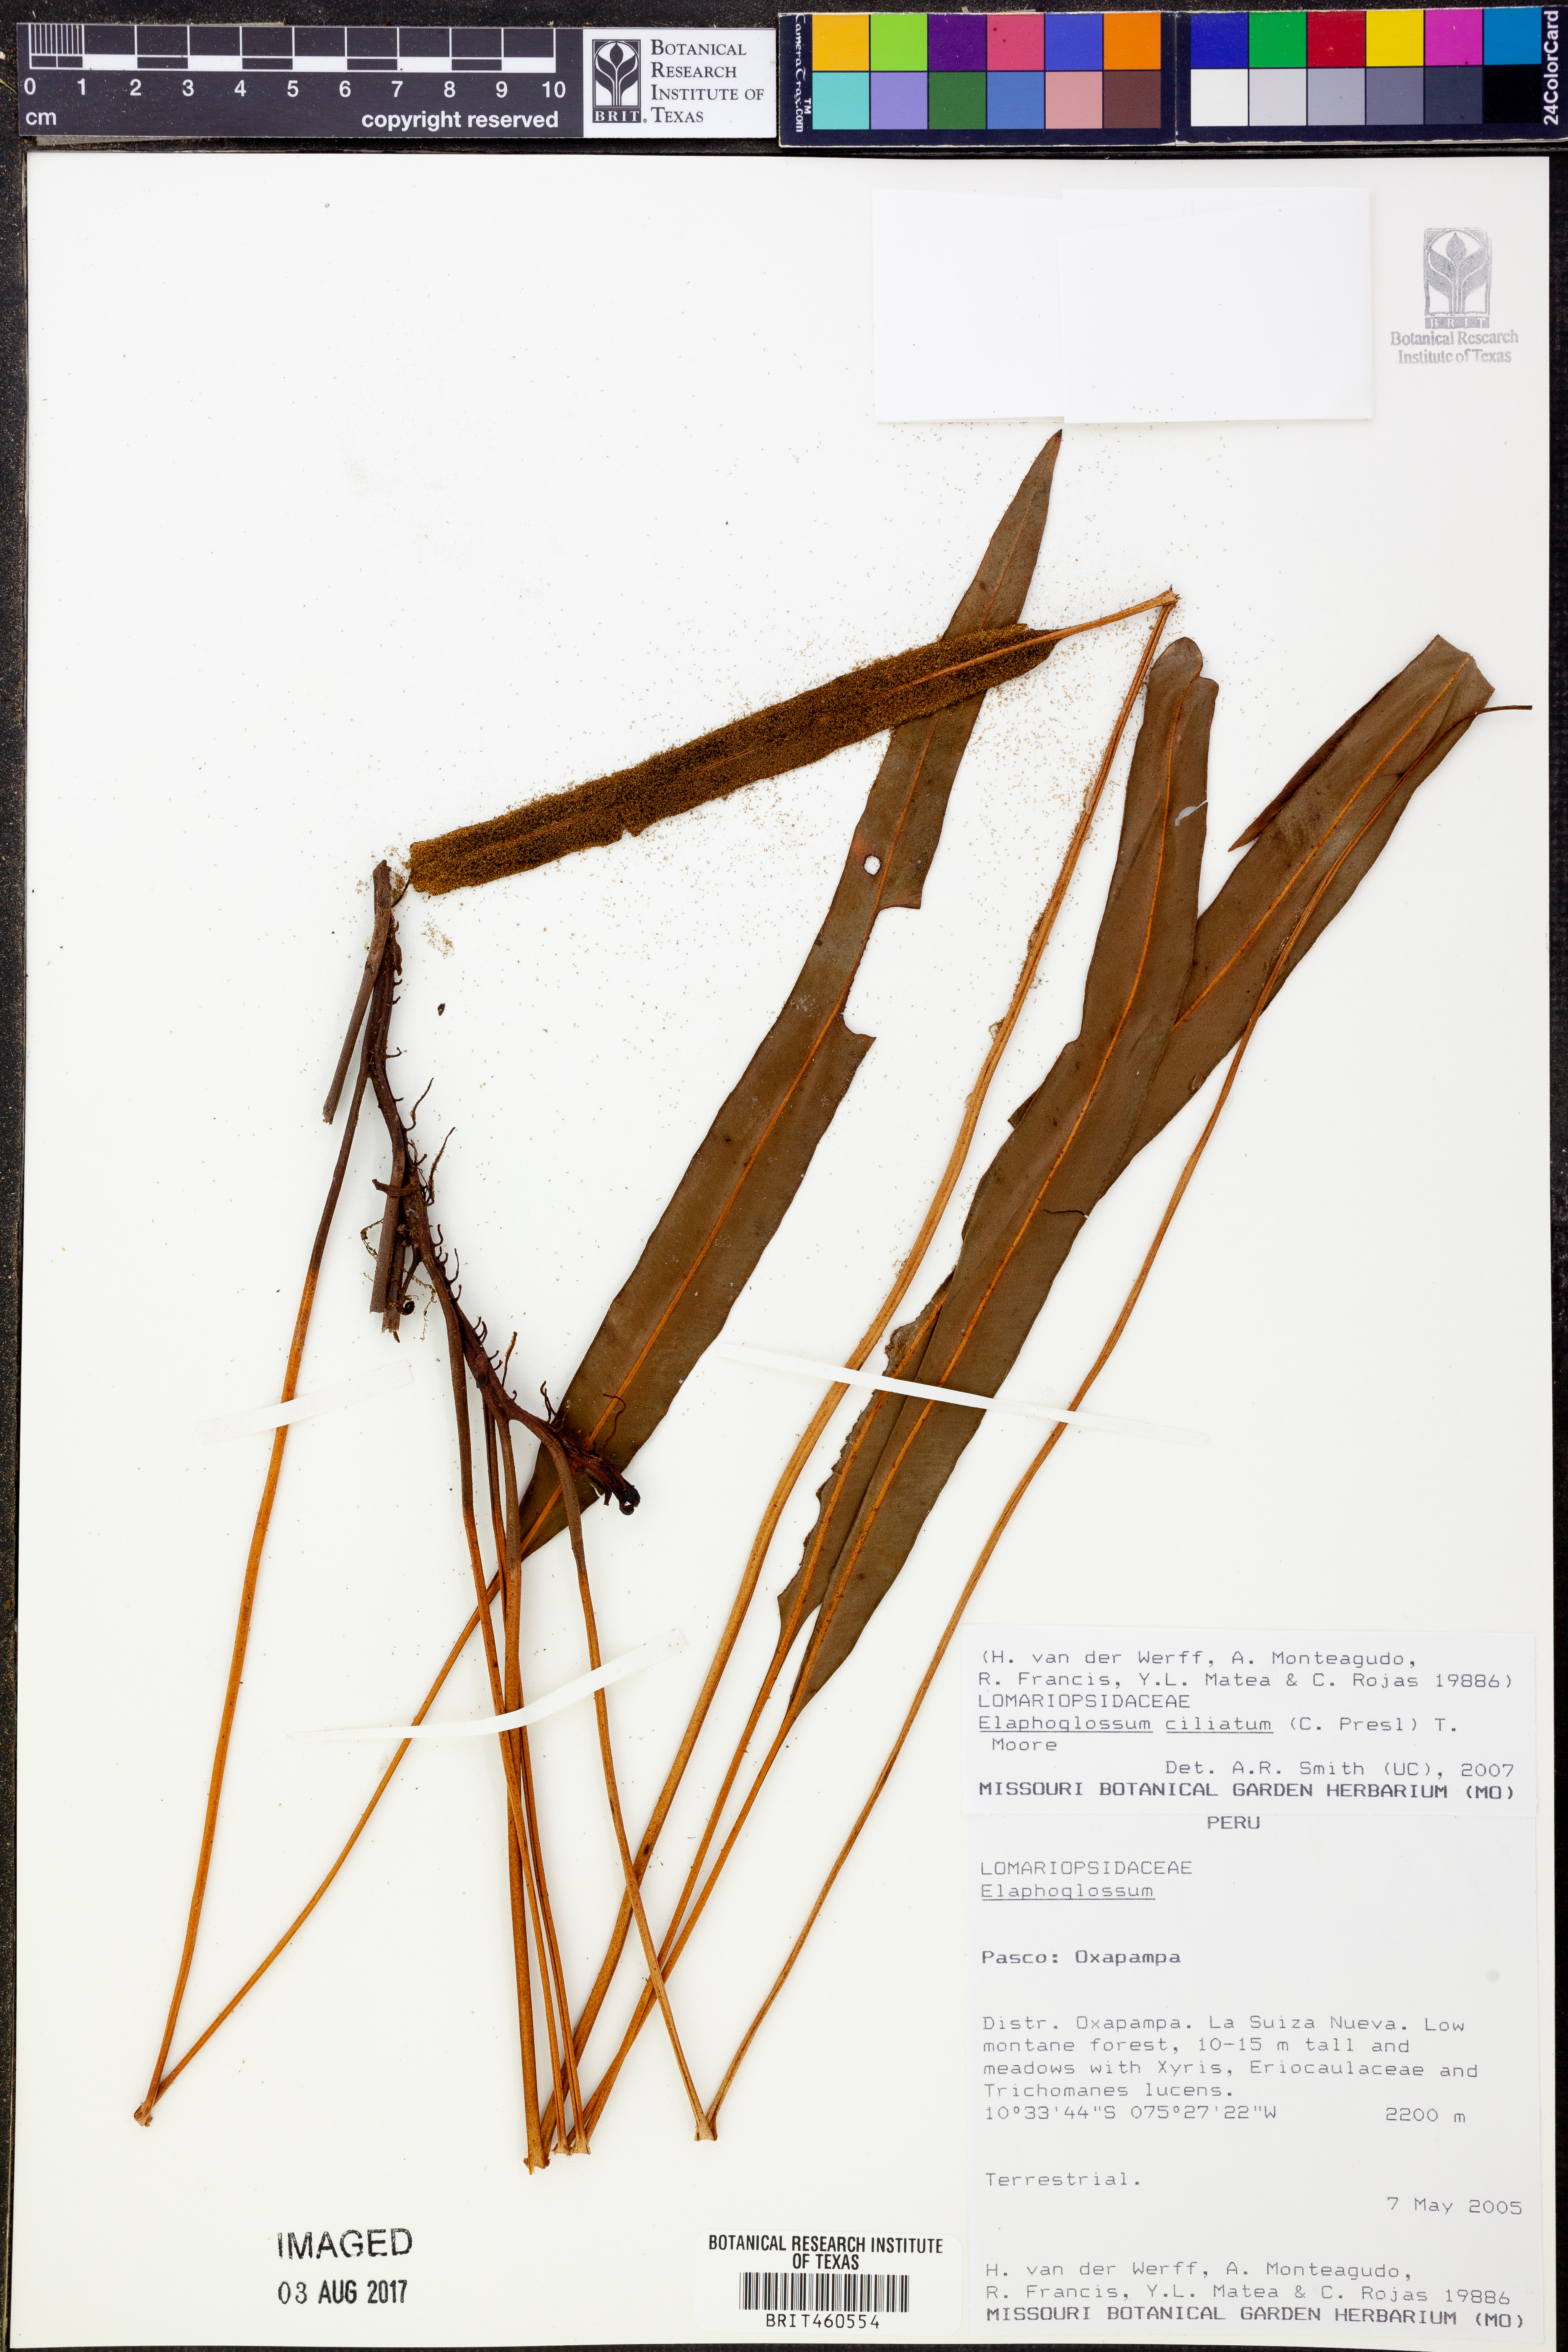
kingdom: Plantae
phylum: Tracheophyta
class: Polypodiopsida
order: Polypodiales
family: Dryopteridaceae
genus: Elaphoglossum
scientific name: Elaphoglossum ciliatum
